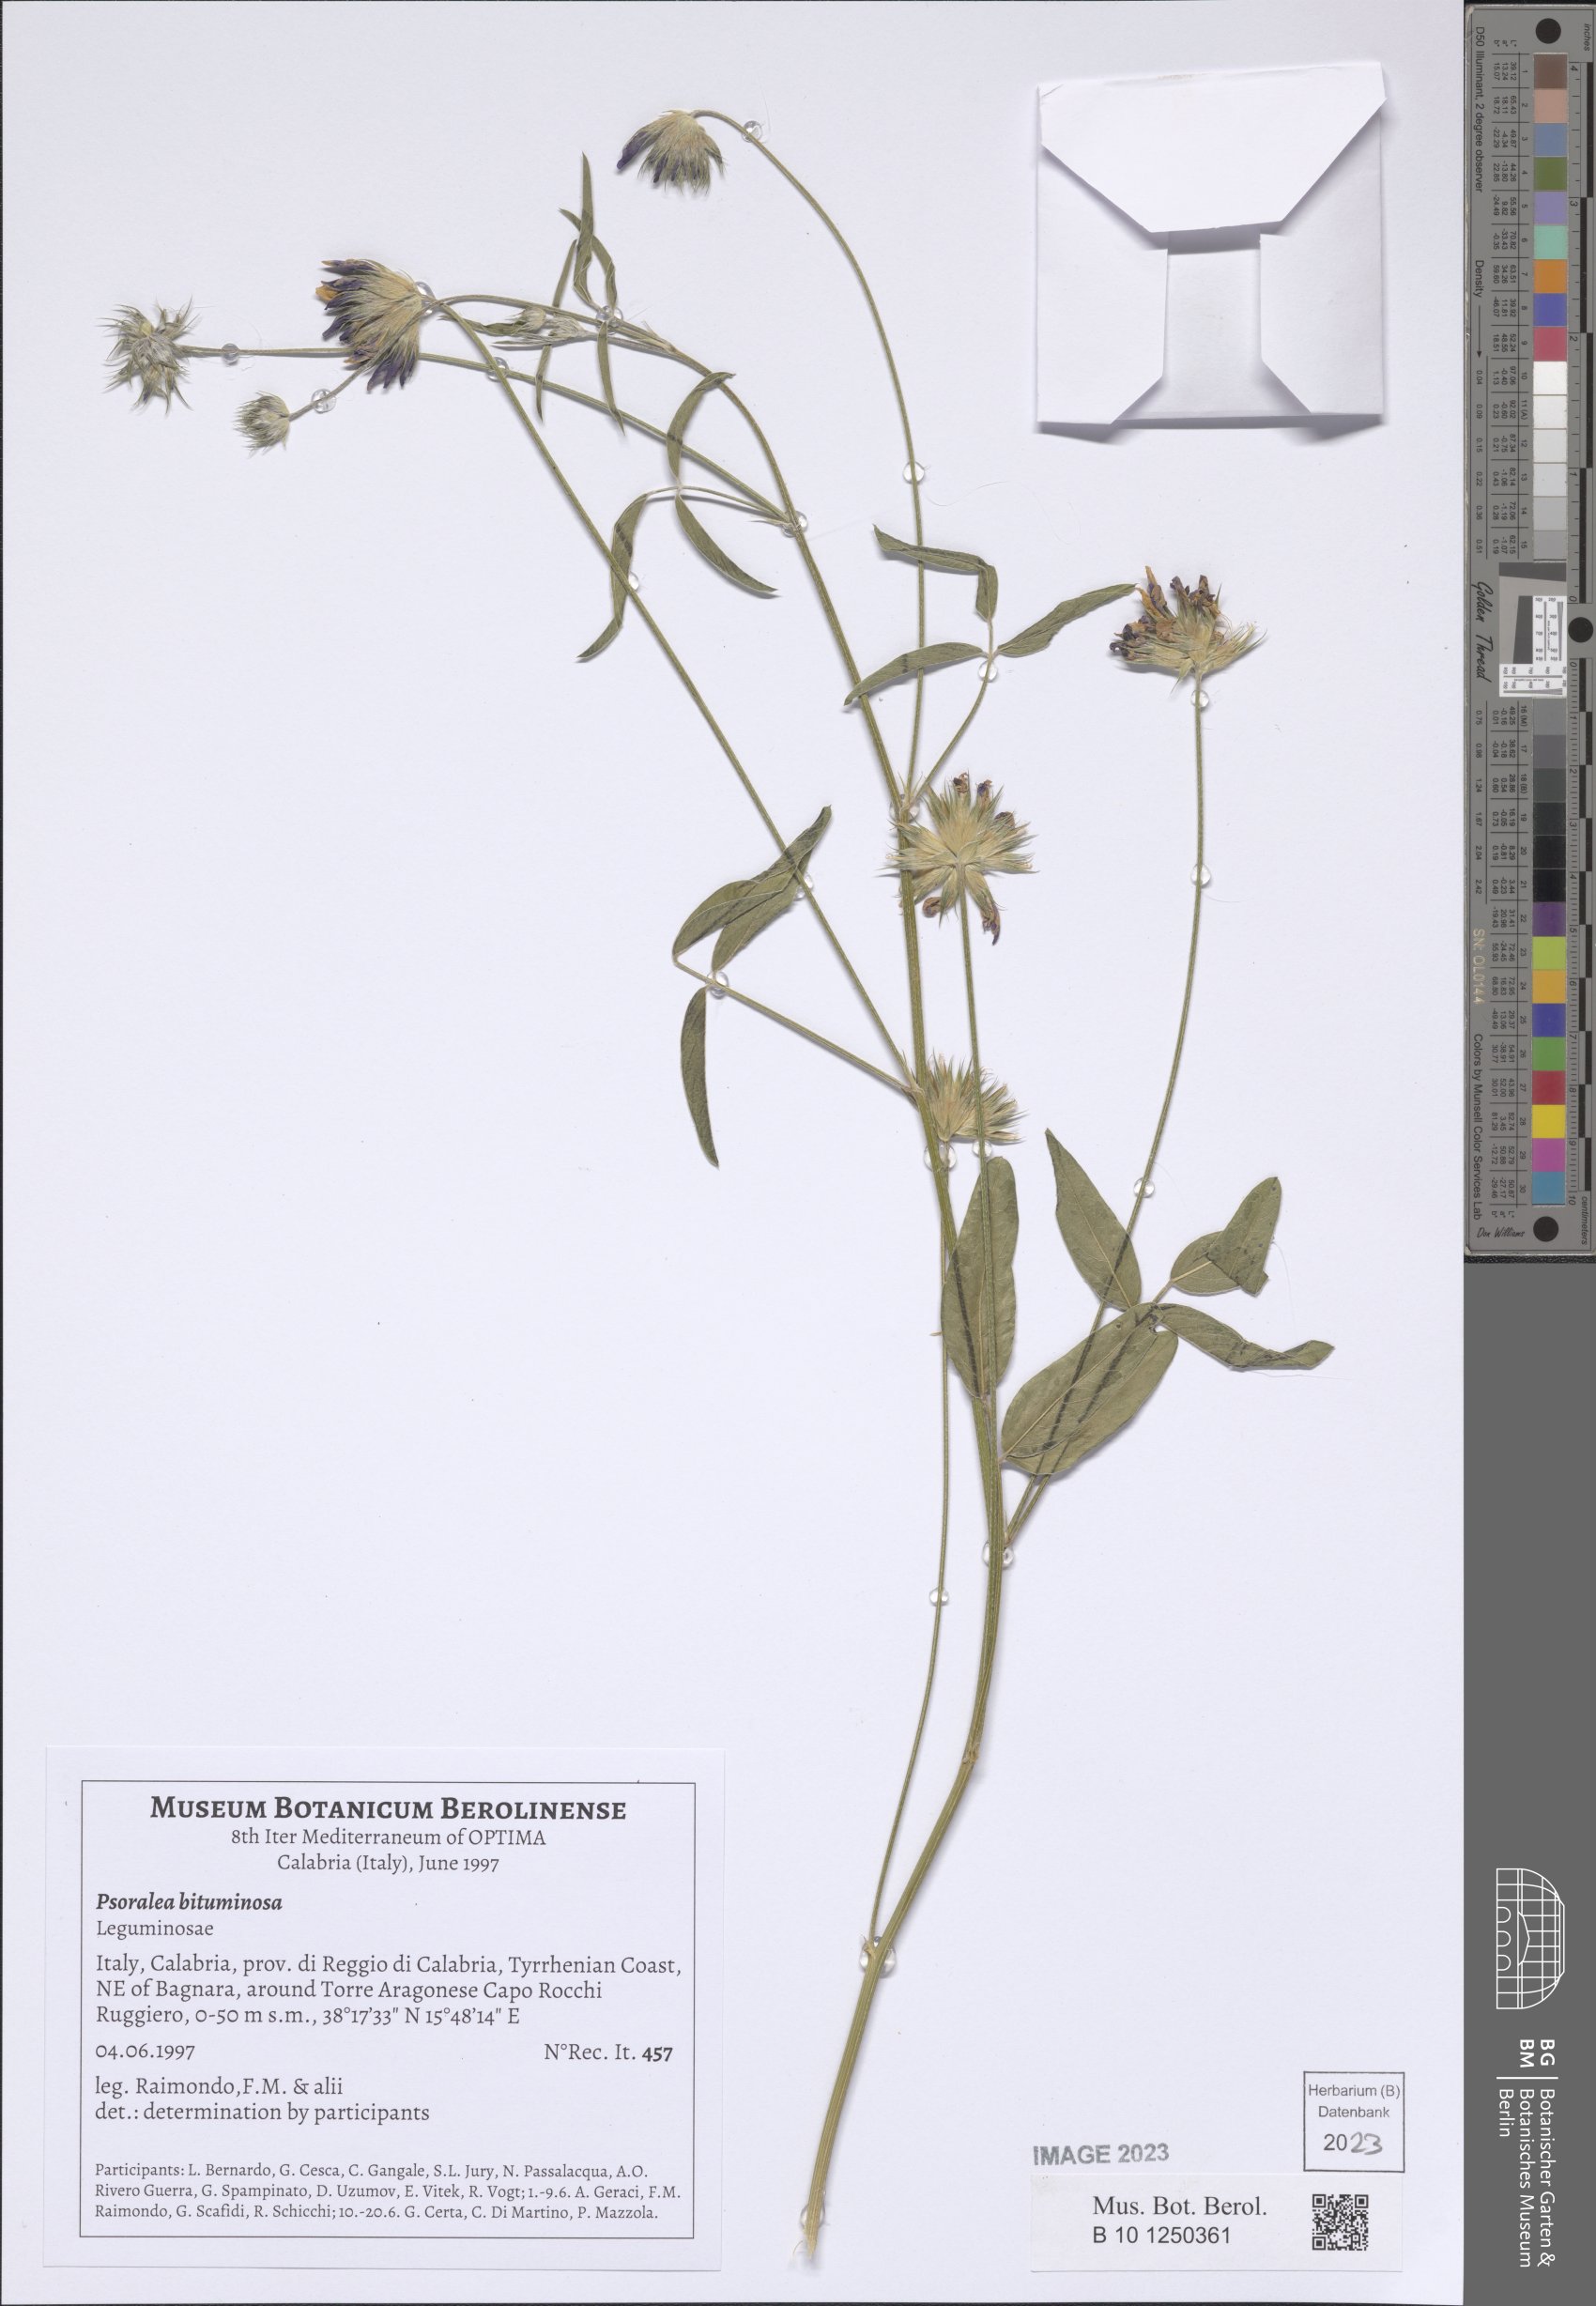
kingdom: Plantae
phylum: Tracheophyta
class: Magnoliopsida
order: Fabales
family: Fabaceae
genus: Bituminaria
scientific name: Bituminaria bituminosa
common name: Arabian pea
